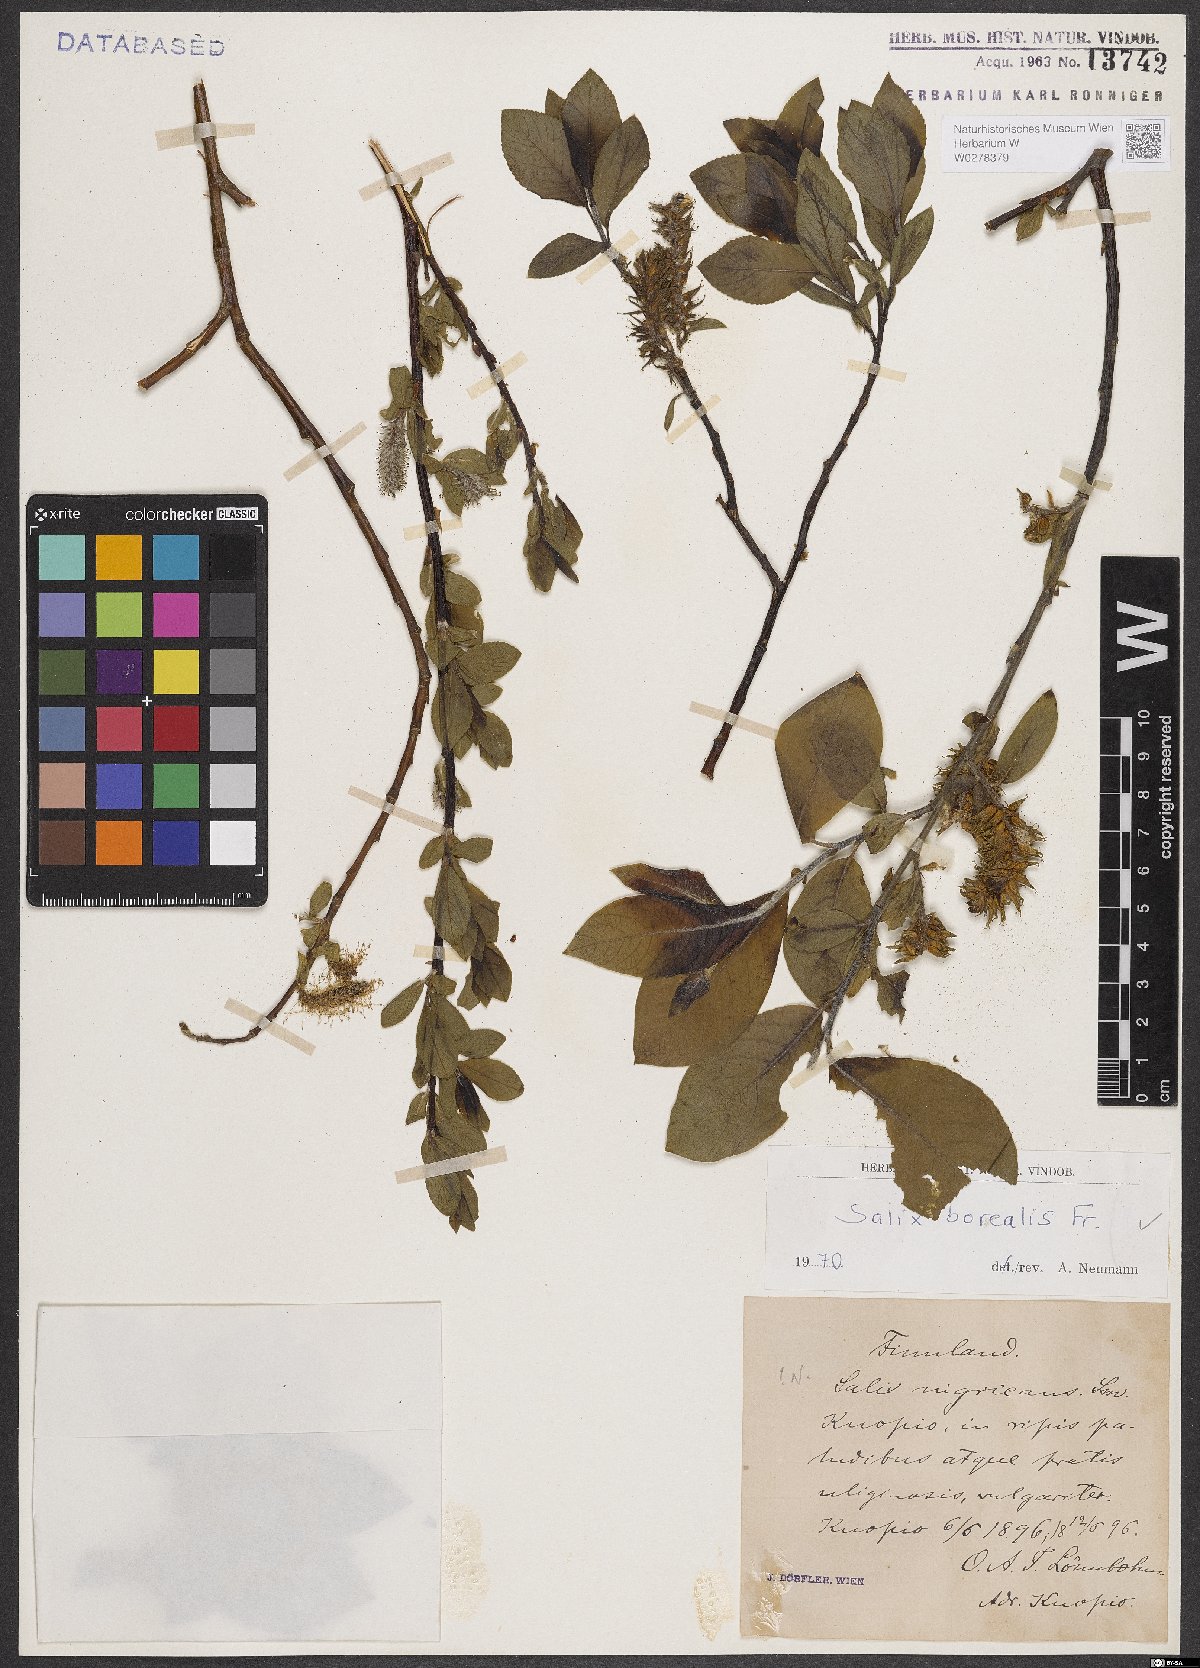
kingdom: Plantae
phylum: Tracheophyta
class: Magnoliopsida
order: Malpighiales
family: Salicaceae
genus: Salix
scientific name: Salix myrsinifolia
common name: Dark-leaved willow
